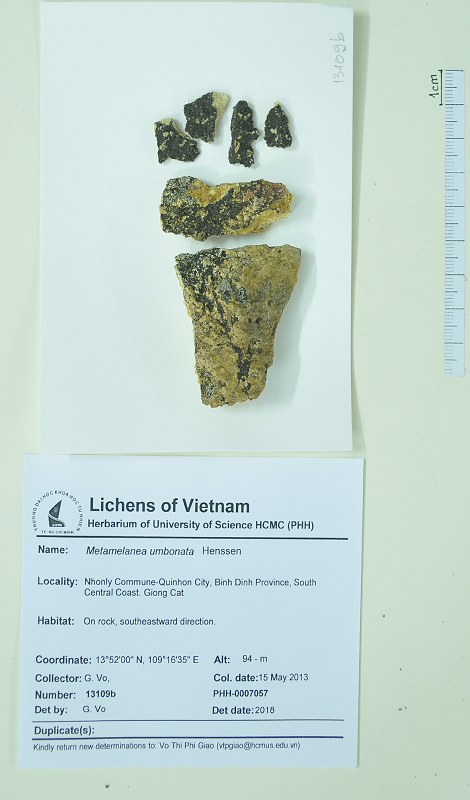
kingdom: Fungi
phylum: Ascomycota
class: Lichinomycetes
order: Lichinales
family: Lichinaceae
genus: Metamelanea
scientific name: Metamelanea umbonata
